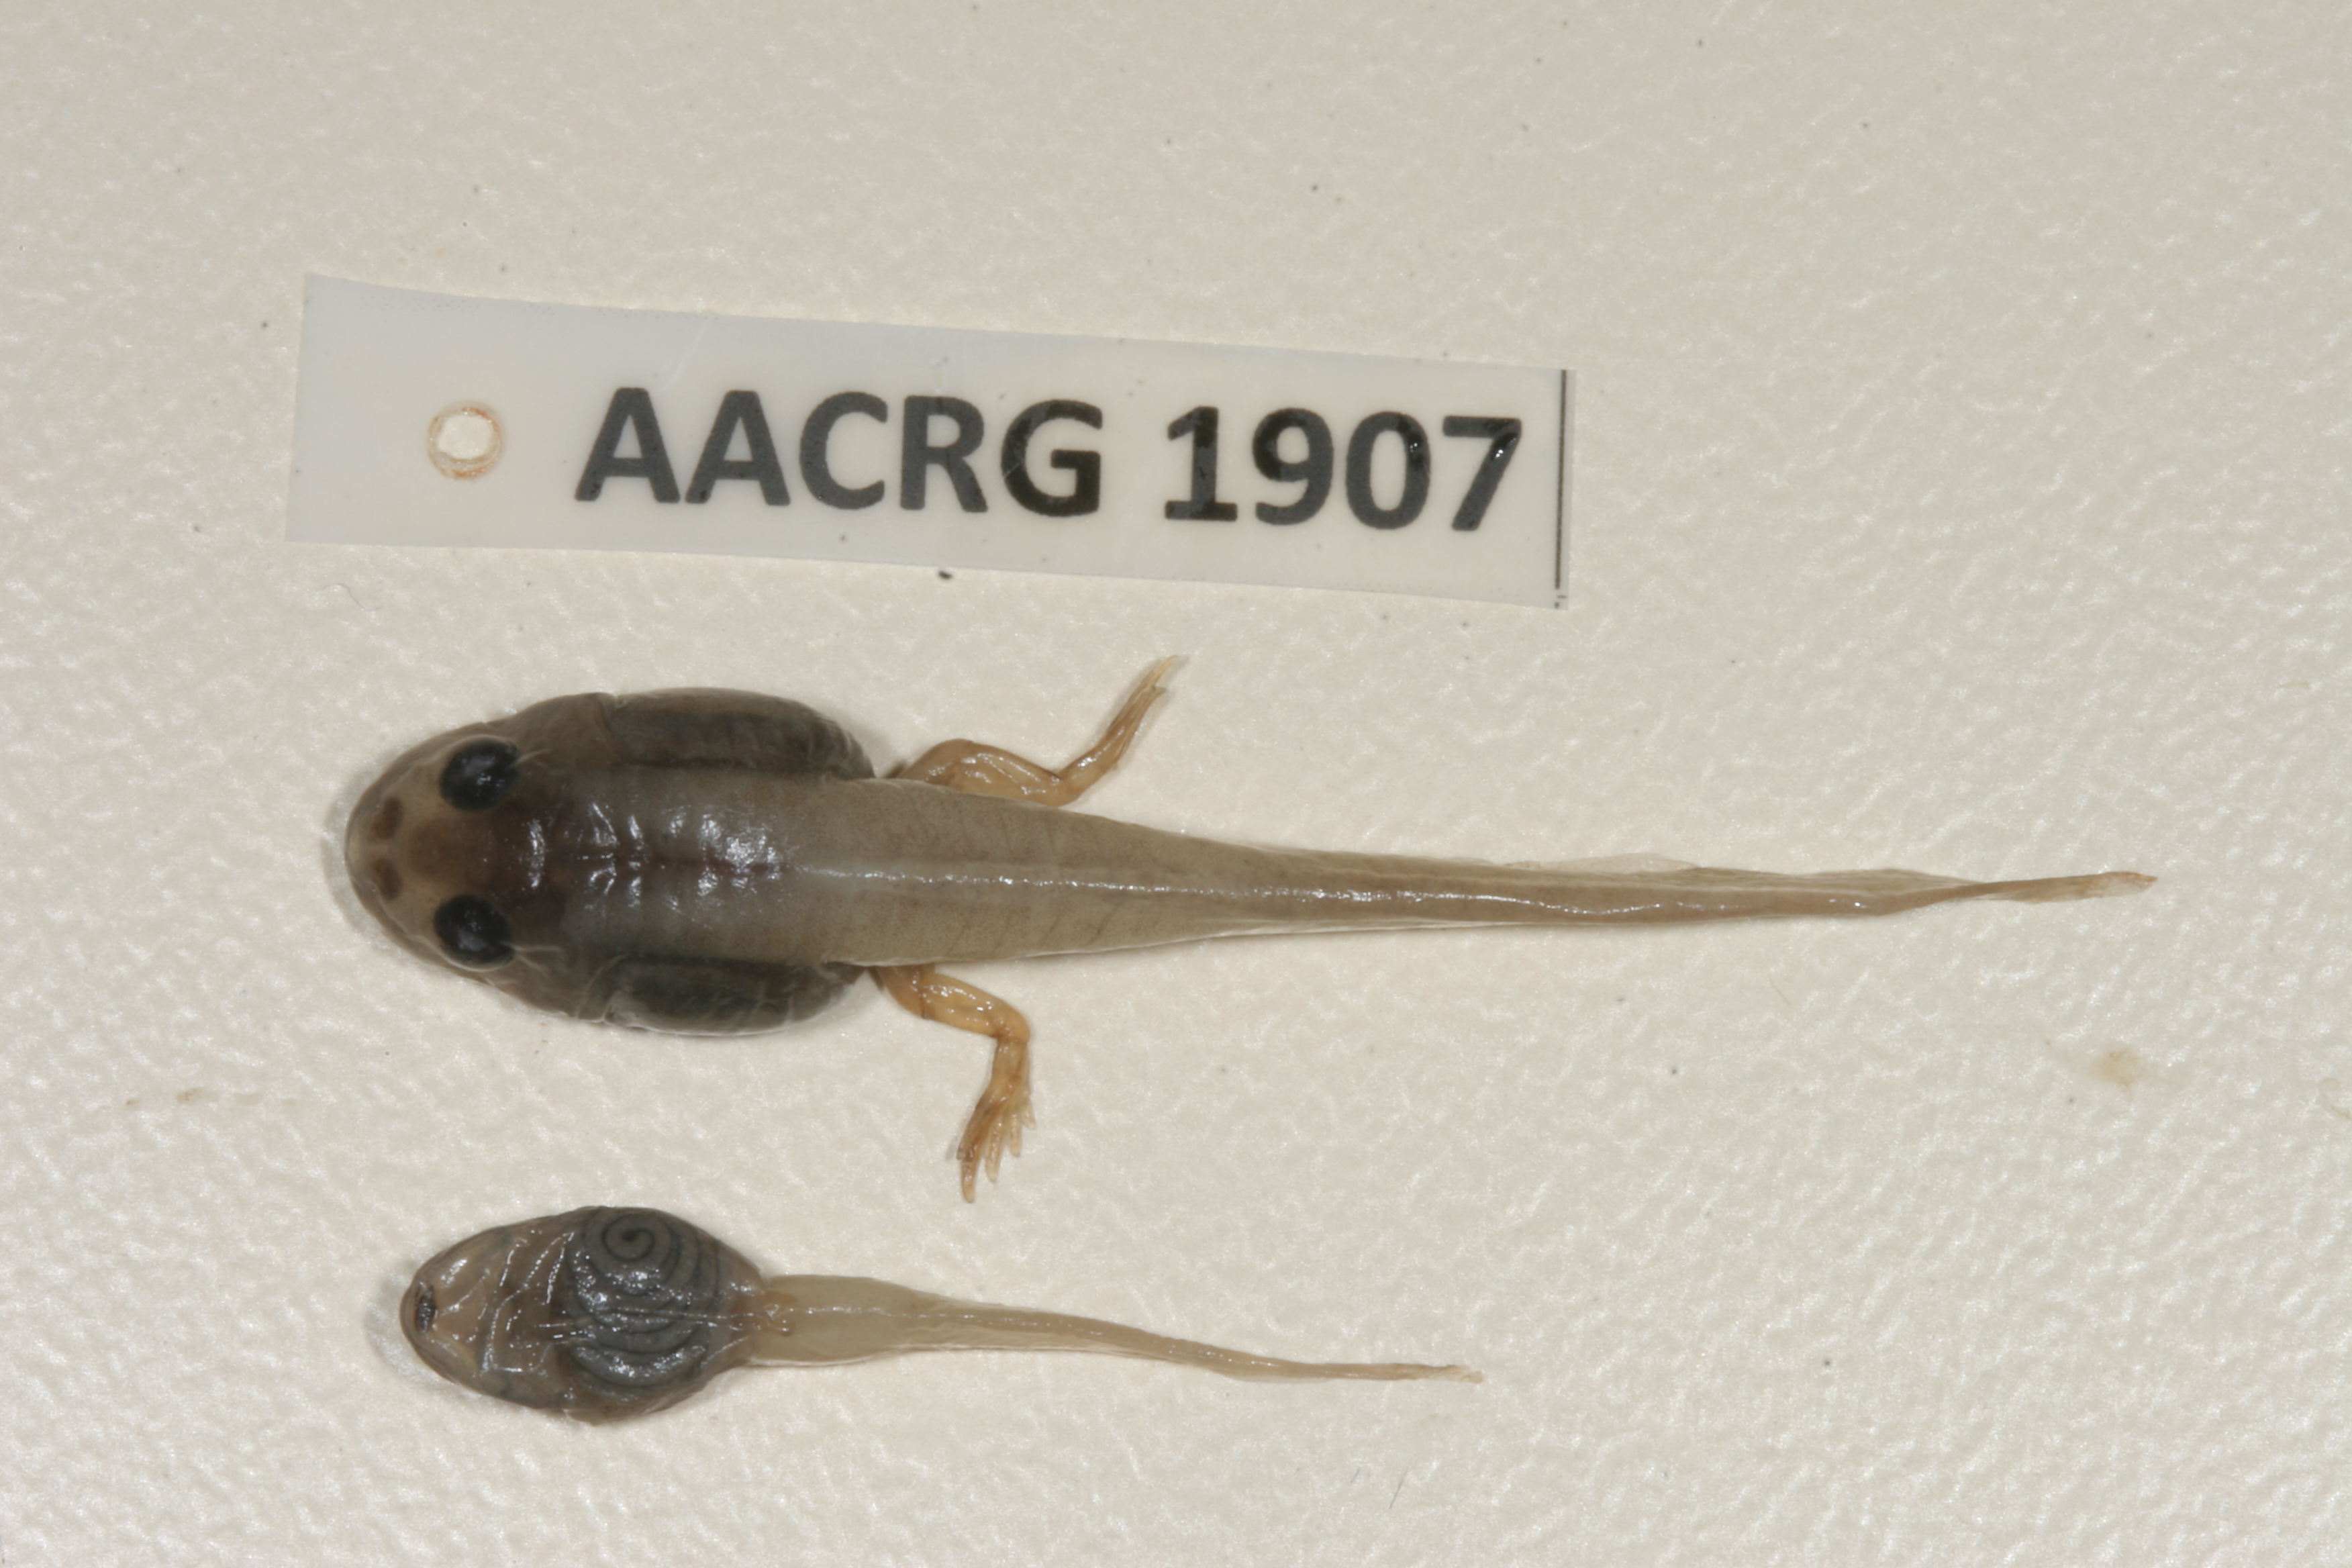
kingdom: Animalia
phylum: Chordata
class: Amphibia
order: Anura
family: Ptychadenidae
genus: Ptychadena
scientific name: Ptychadena mossambica
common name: Mozambique ridged frog
